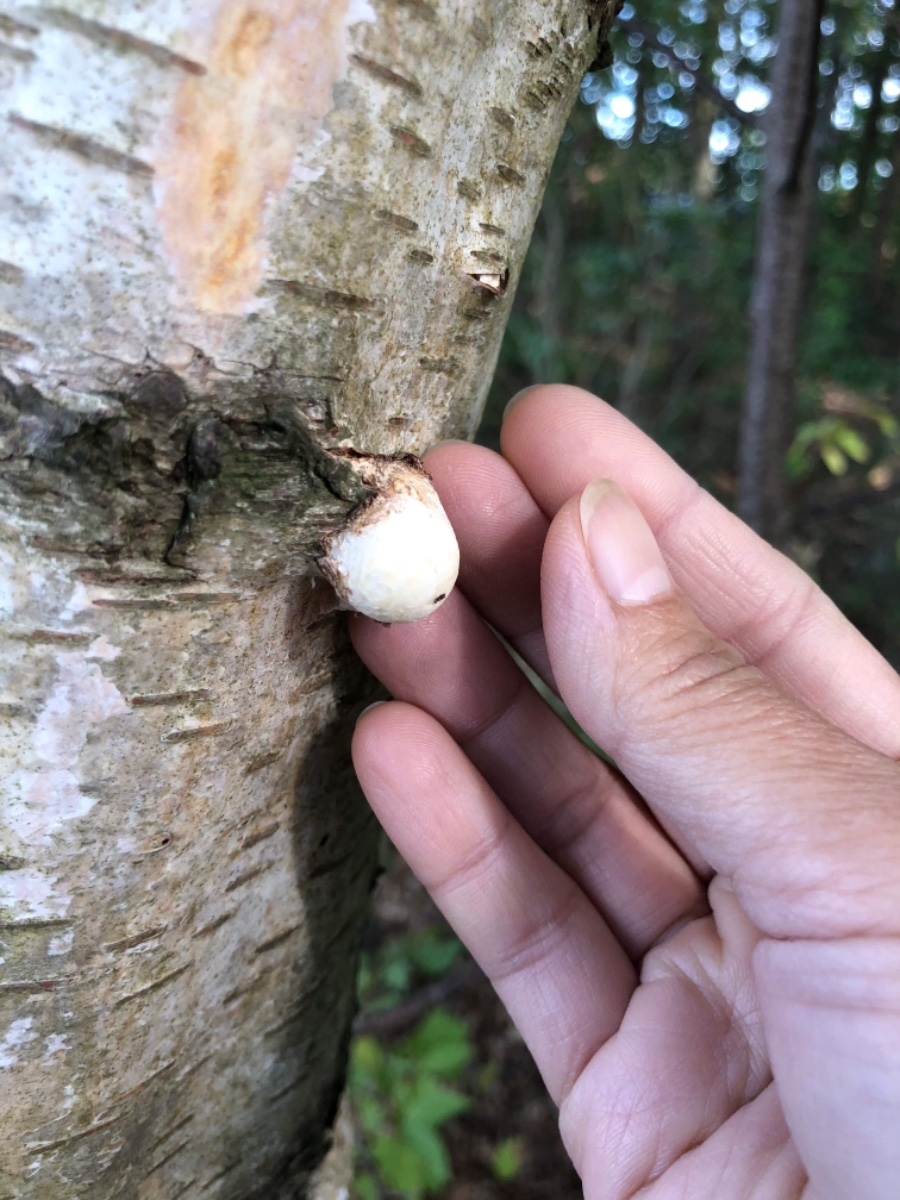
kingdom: Fungi
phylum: Basidiomycota
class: Agaricomycetes
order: Polyporales
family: Fomitopsidaceae
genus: Fomitopsis
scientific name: Fomitopsis betulina
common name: birkeporesvamp
